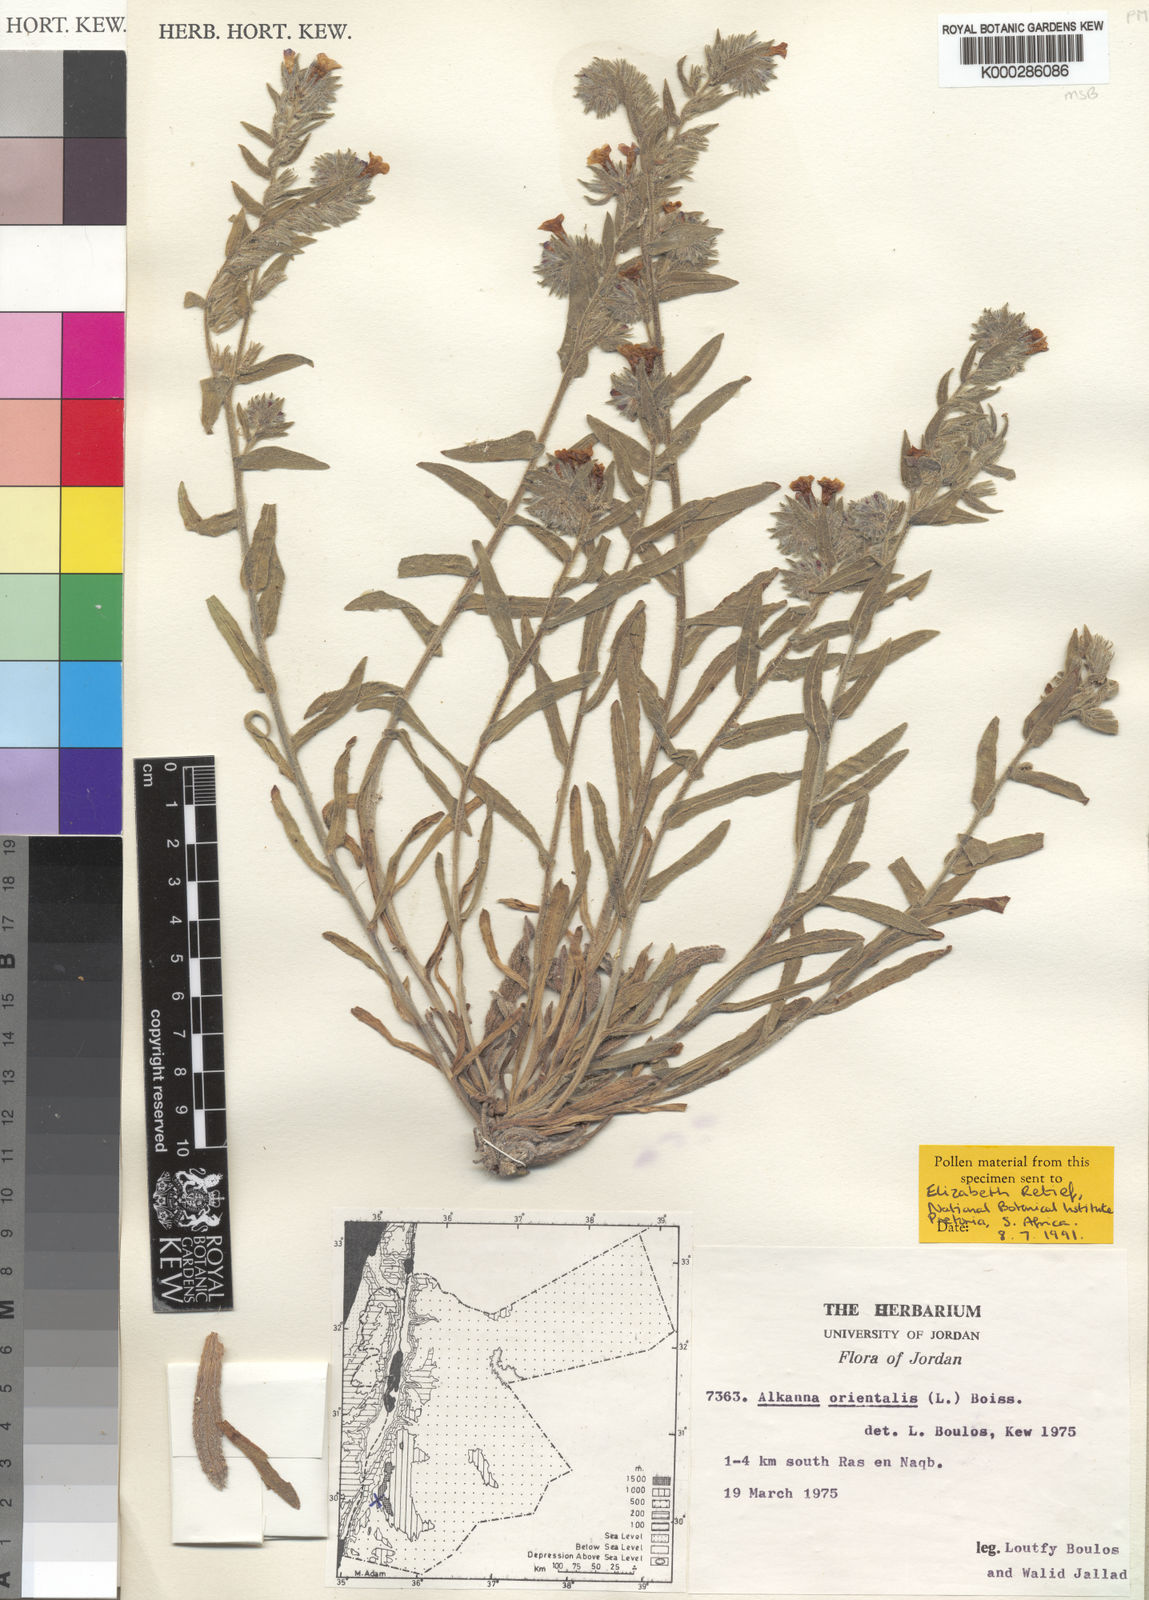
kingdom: Plantae
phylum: Tracheophyta
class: Magnoliopsida
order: Boraginales
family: Boraginaceae
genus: Alkanna
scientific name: Alkanna orientalis
